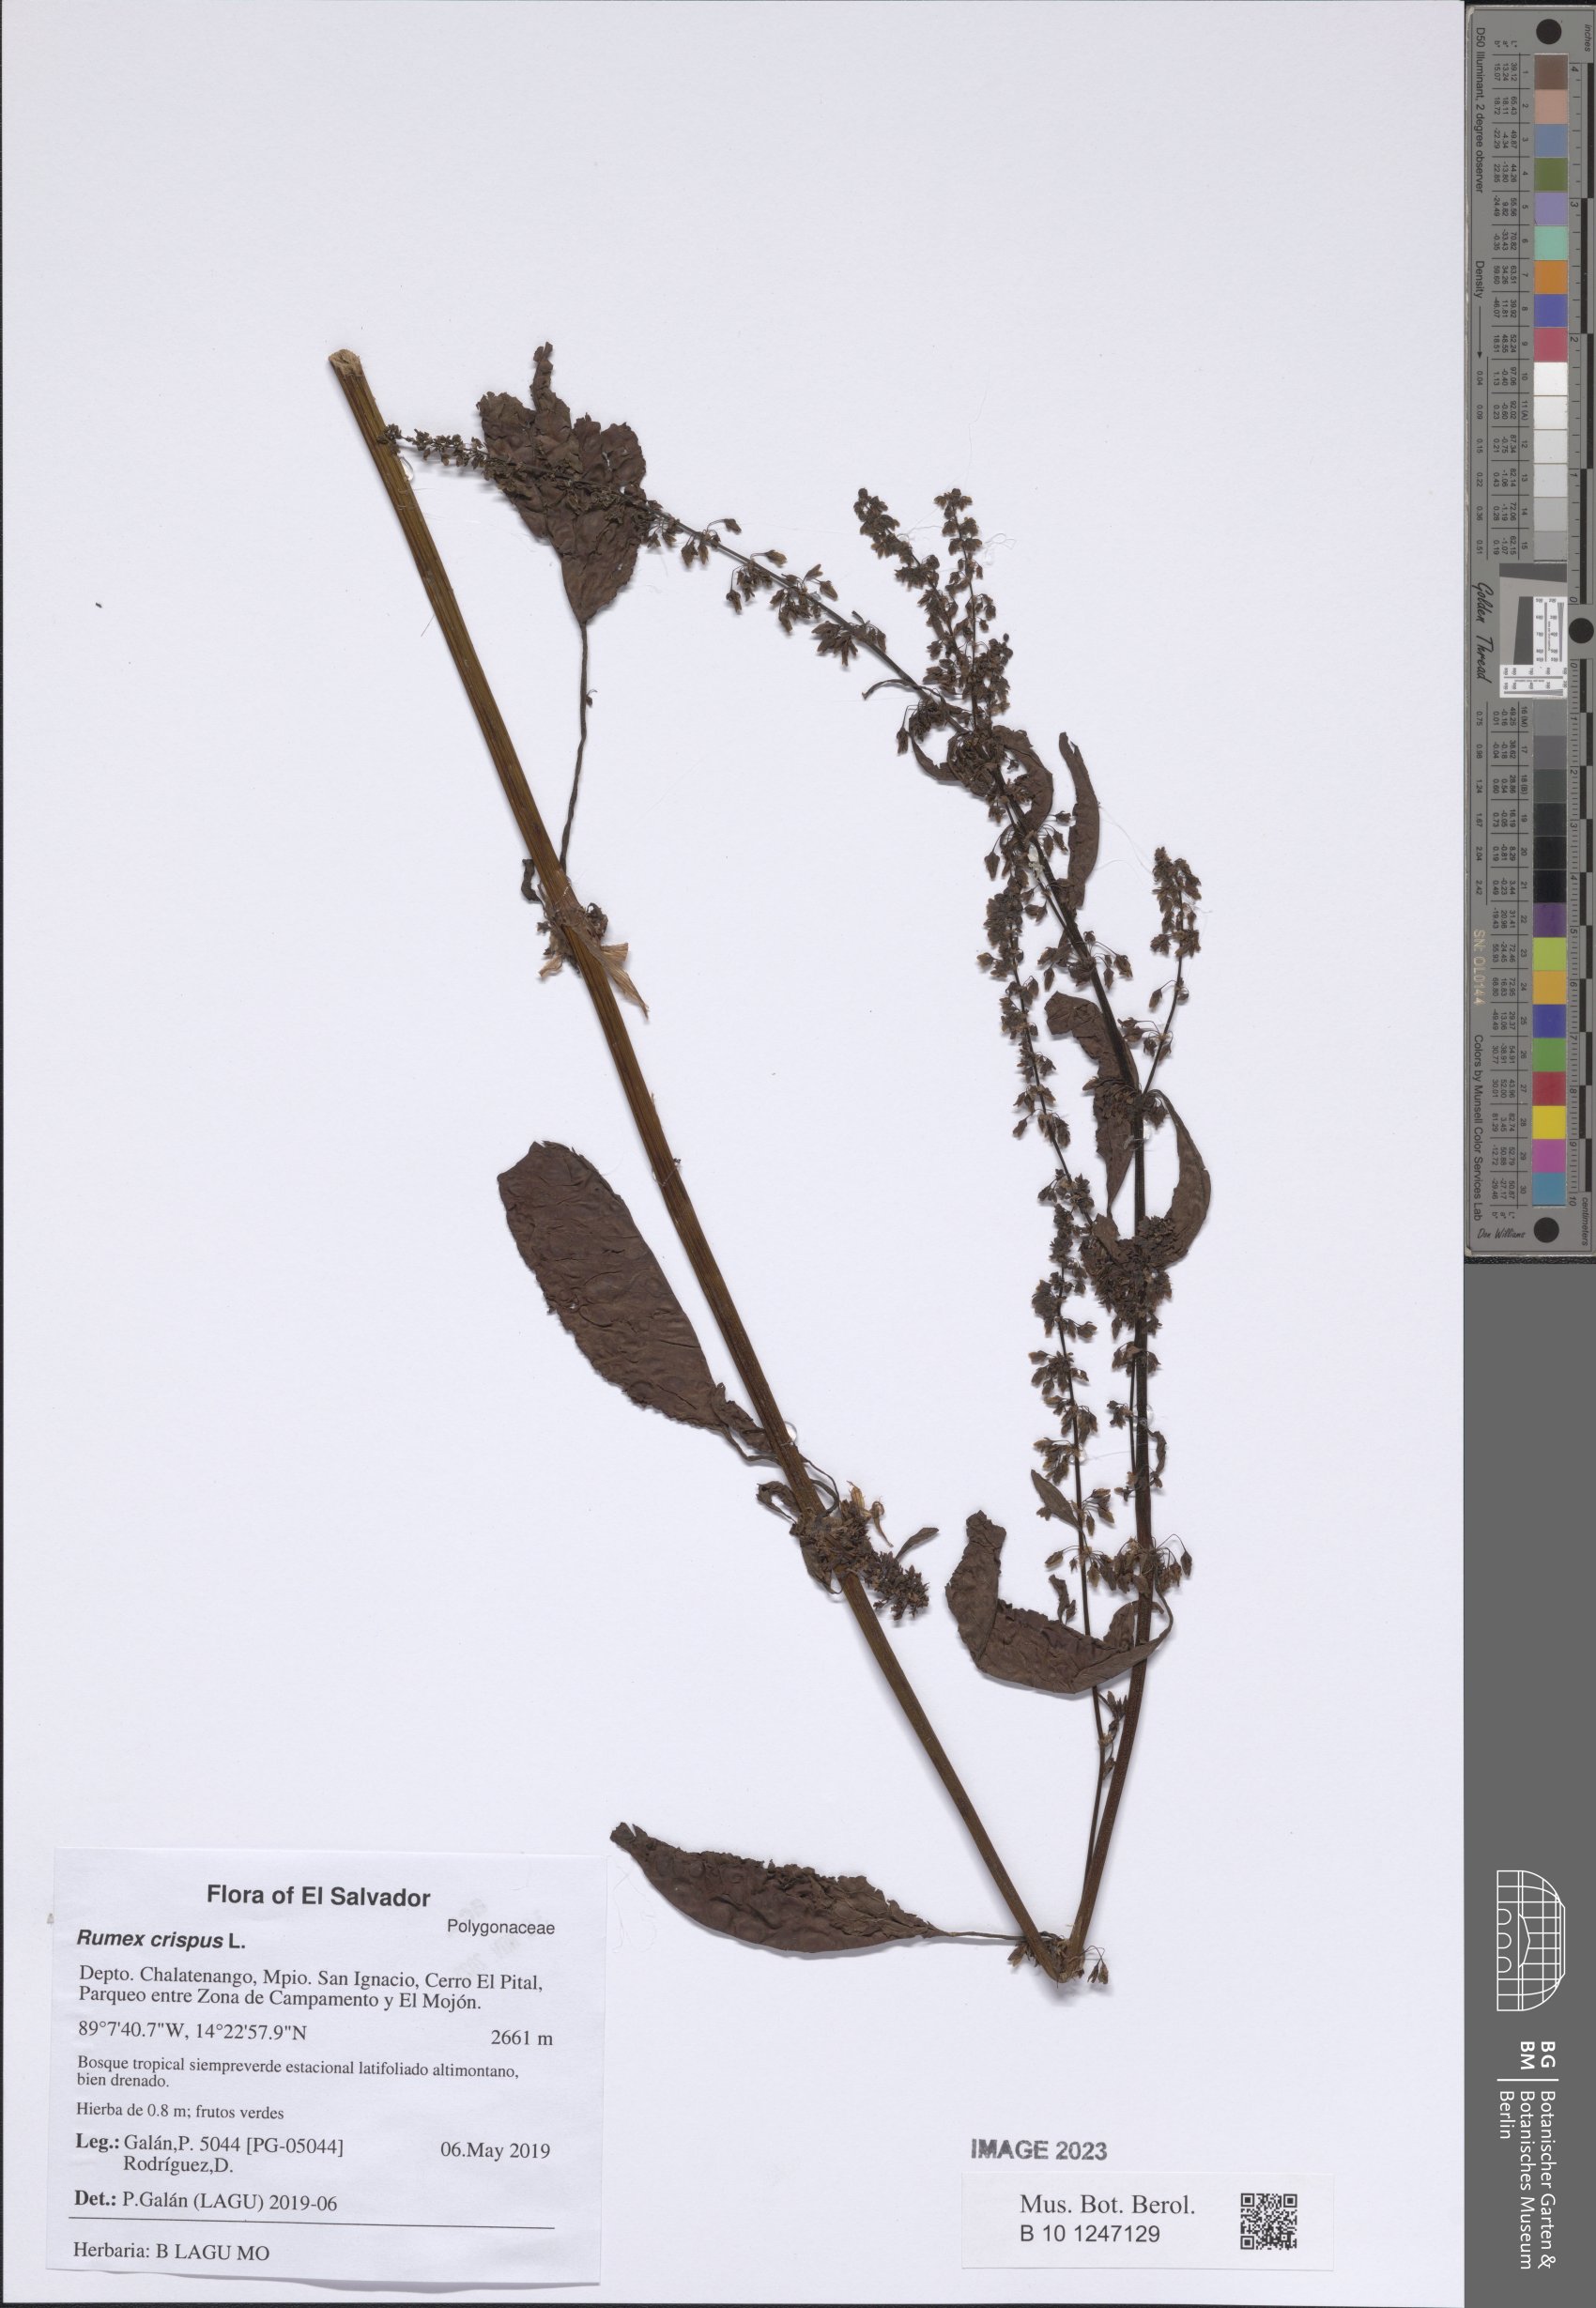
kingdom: Plantae
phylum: Tracheophyta
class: Magnoliopsida
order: Caryophyllales
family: Polygonaceae
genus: Rumex
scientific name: Rumex crispus
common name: Curled dock
